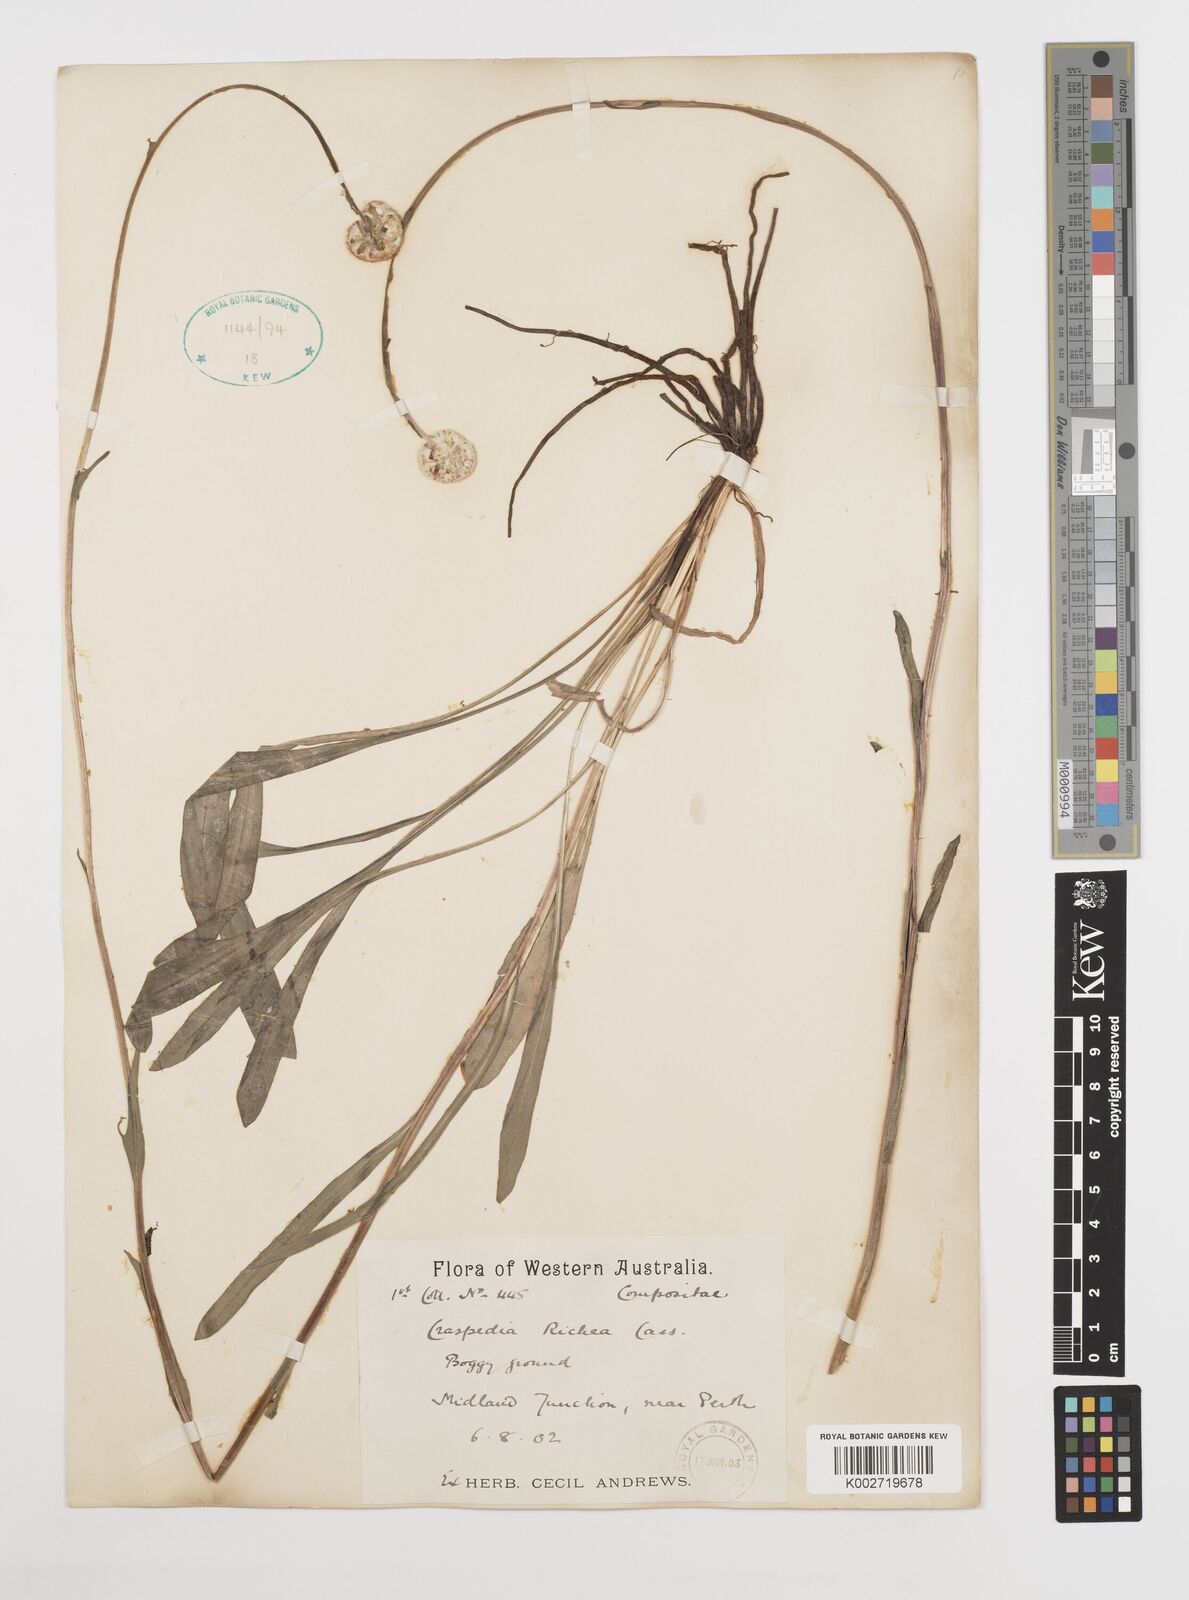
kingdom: Plantae
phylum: Tracheophyta
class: Magnoliopsida
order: Asterales
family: Asteraceae
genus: Craspedia
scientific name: Craspedia glauca
